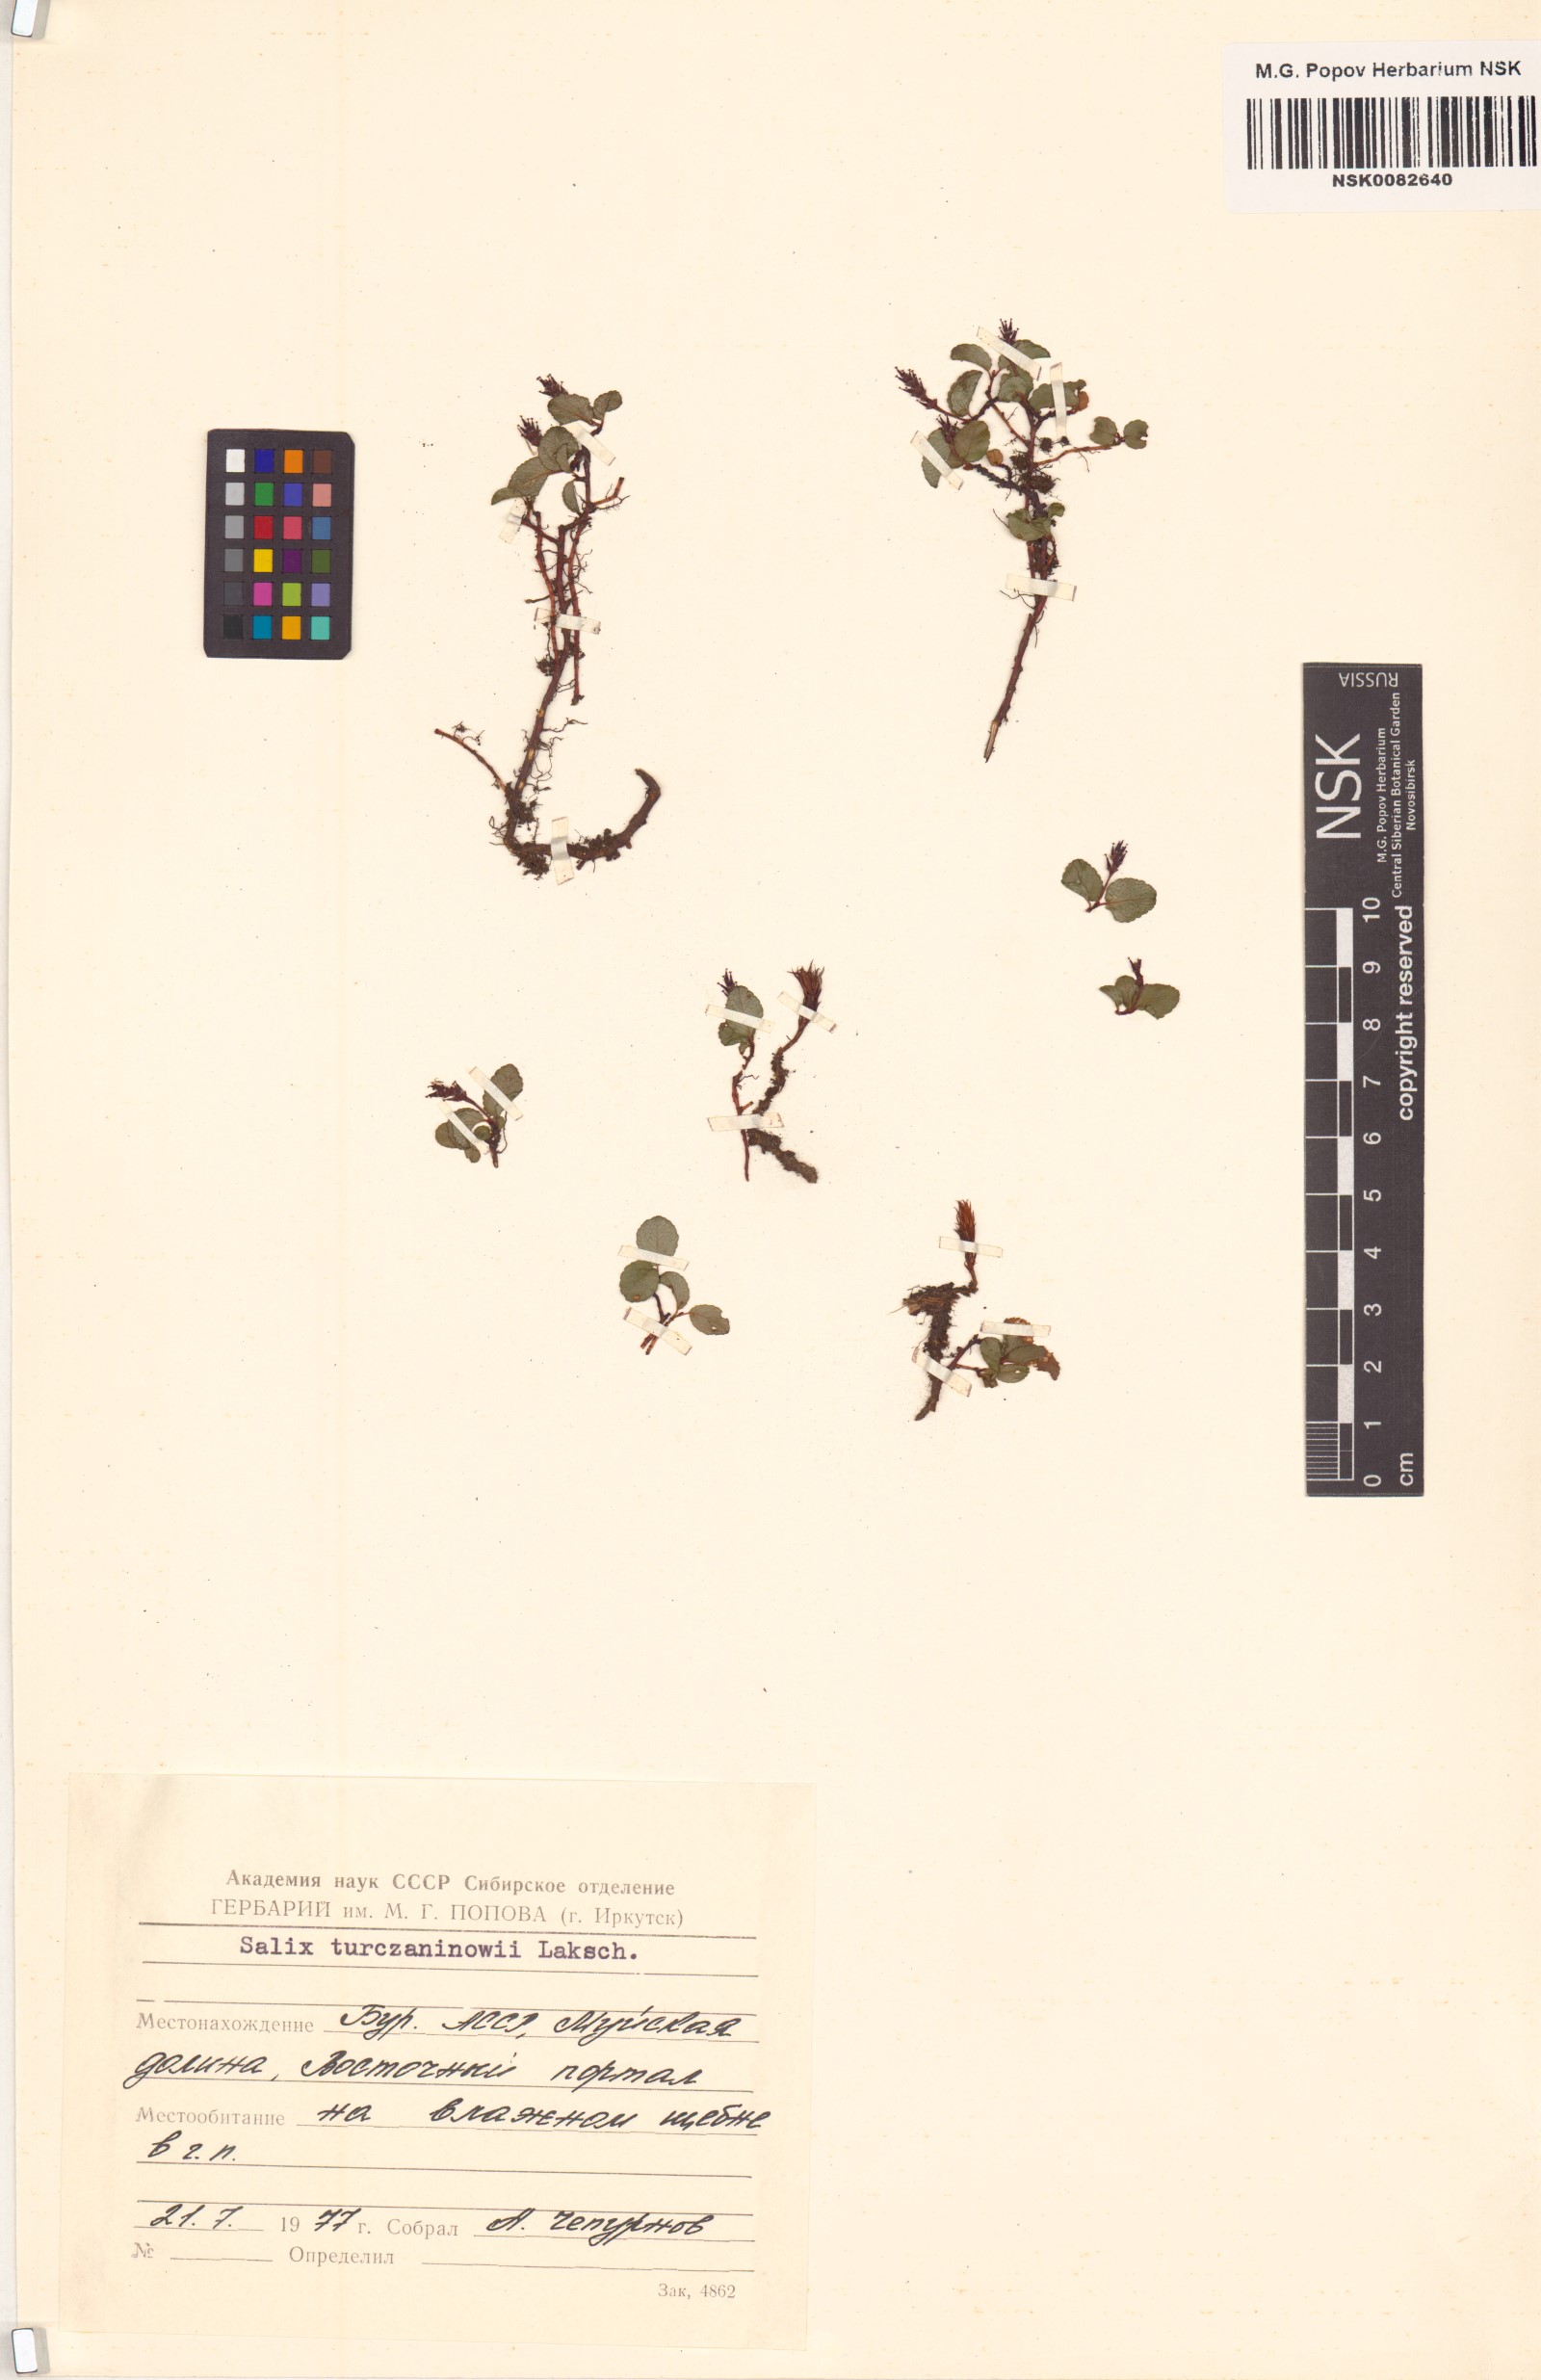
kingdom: Plantae
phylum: Tracheophyta
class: Magnoliopsida
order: Malpighiales
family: Salicaceae
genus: Salix
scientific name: Salix turczaninowii
